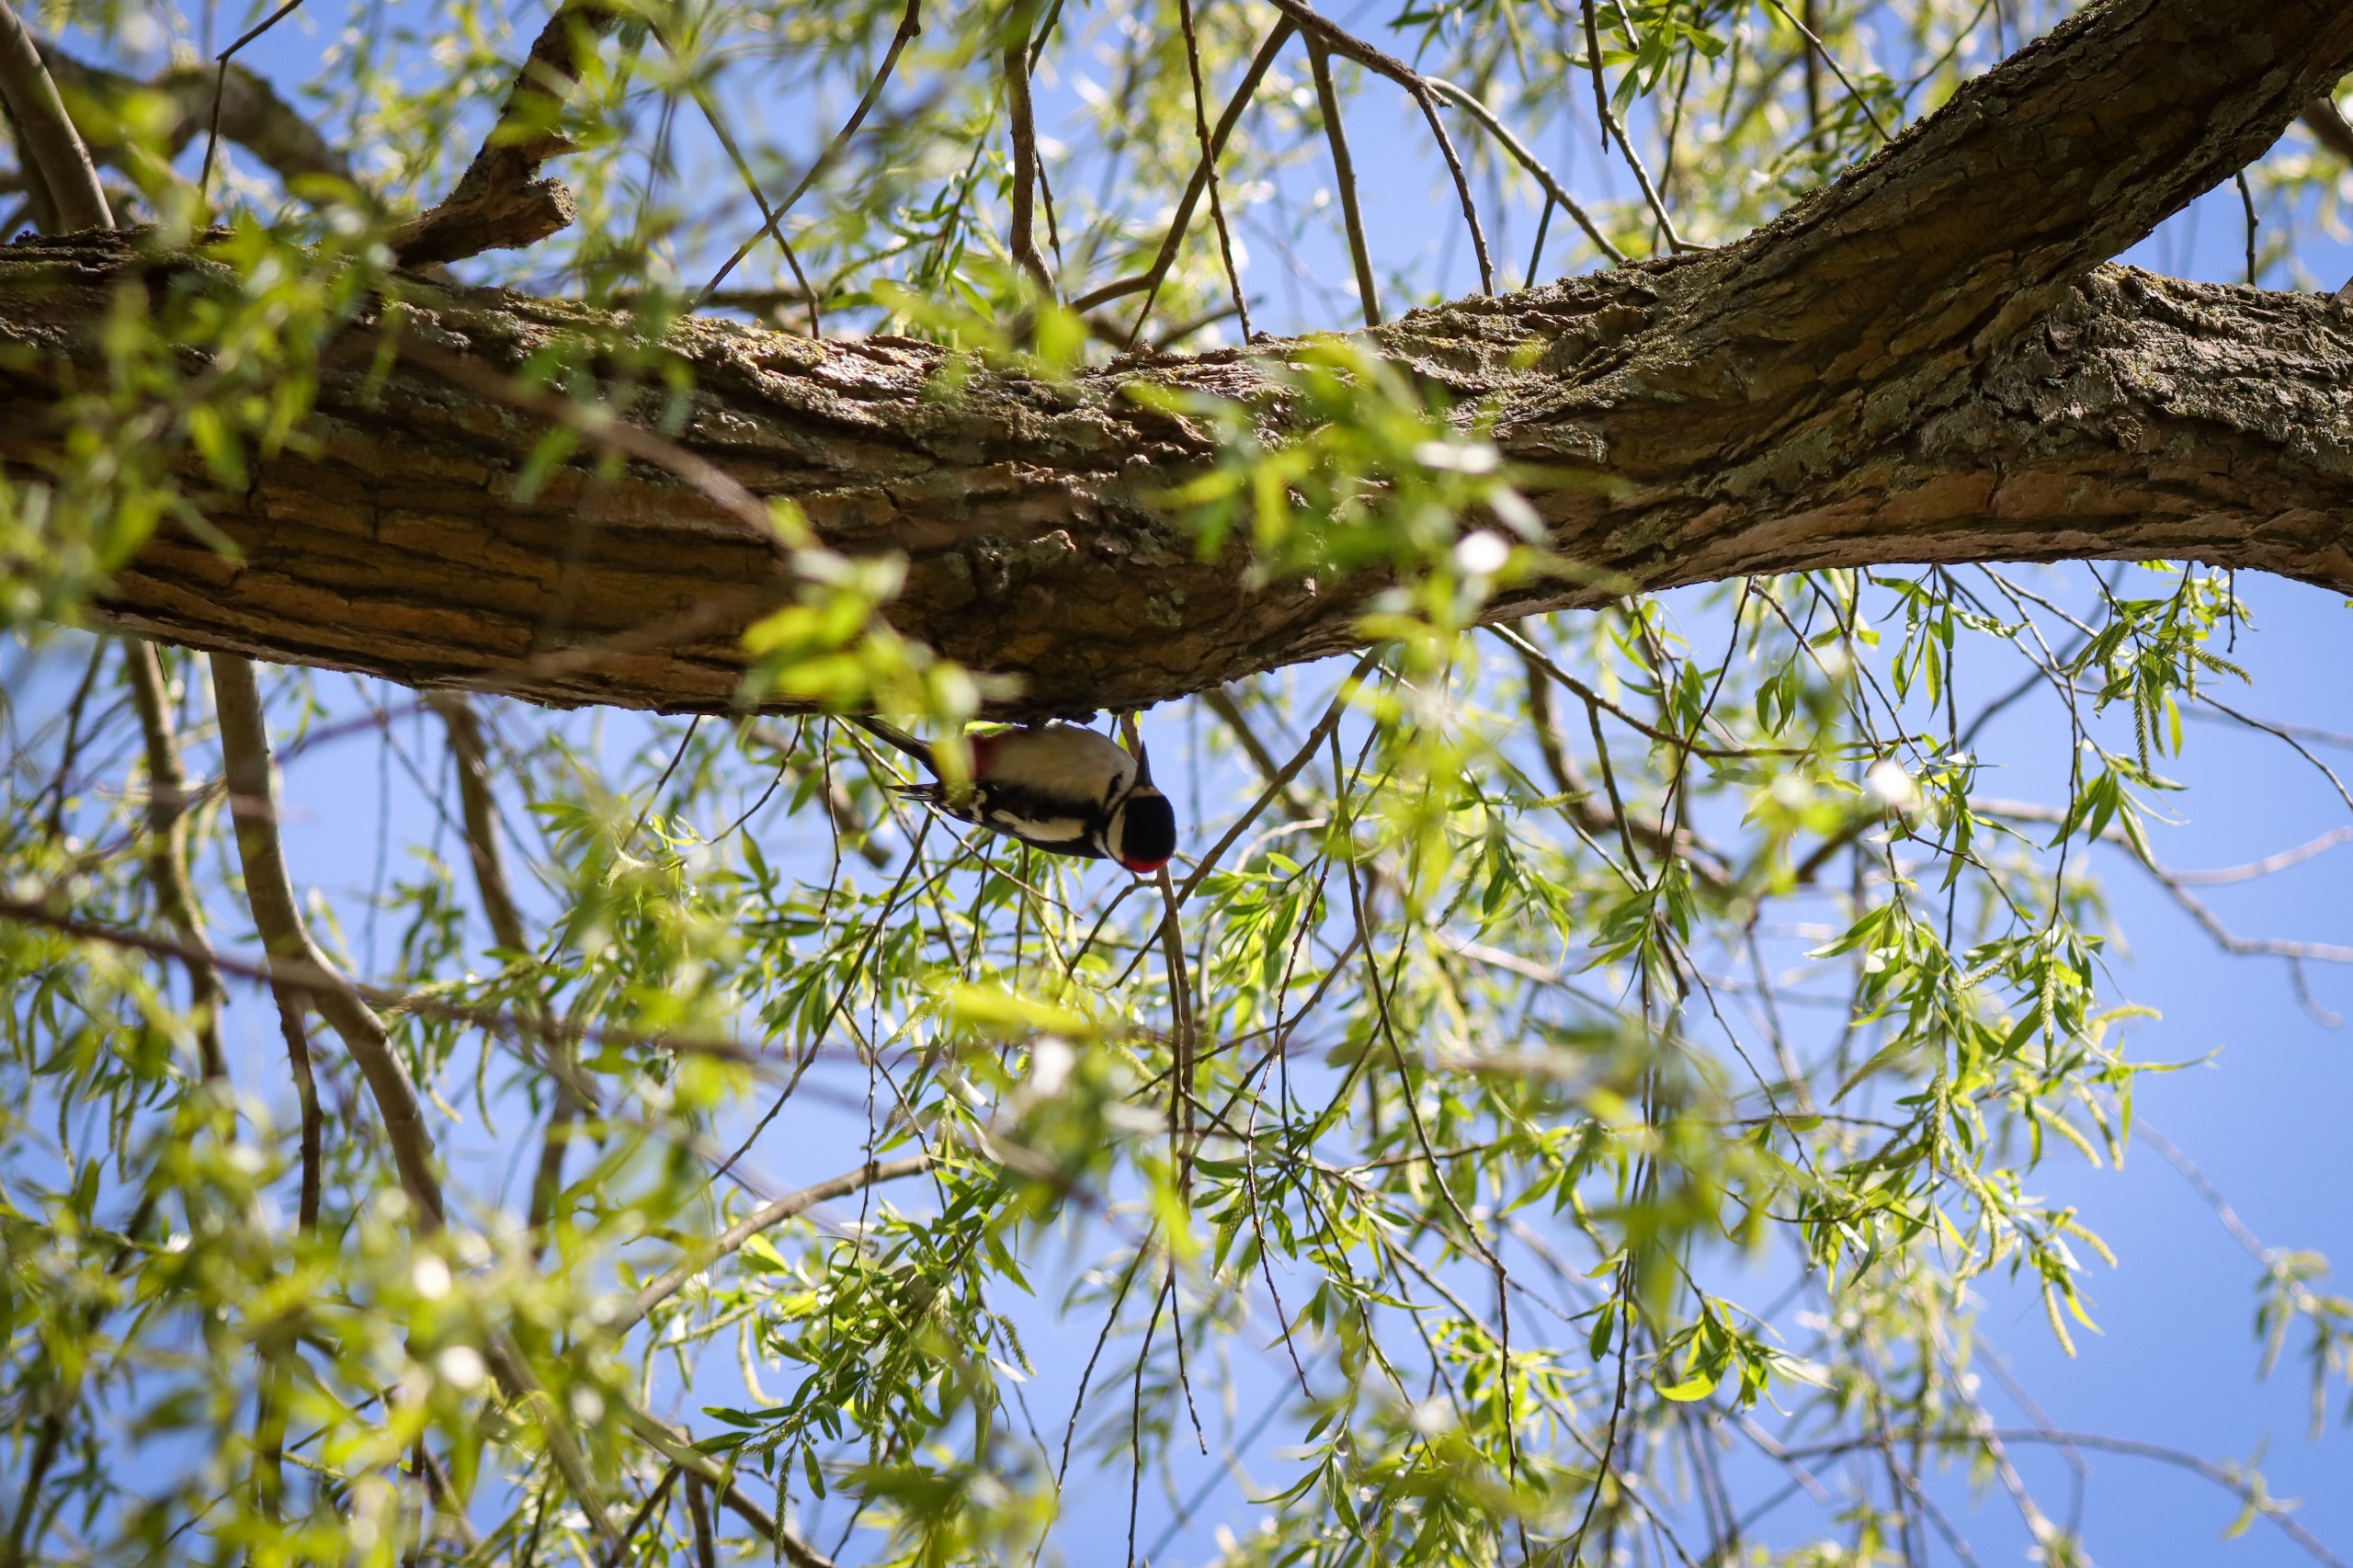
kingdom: Animalia
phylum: Chordata
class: Aves
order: Piciformes
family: Picidae
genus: Dendrocopos
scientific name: Dendrocopos major
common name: Stor flagspætte
